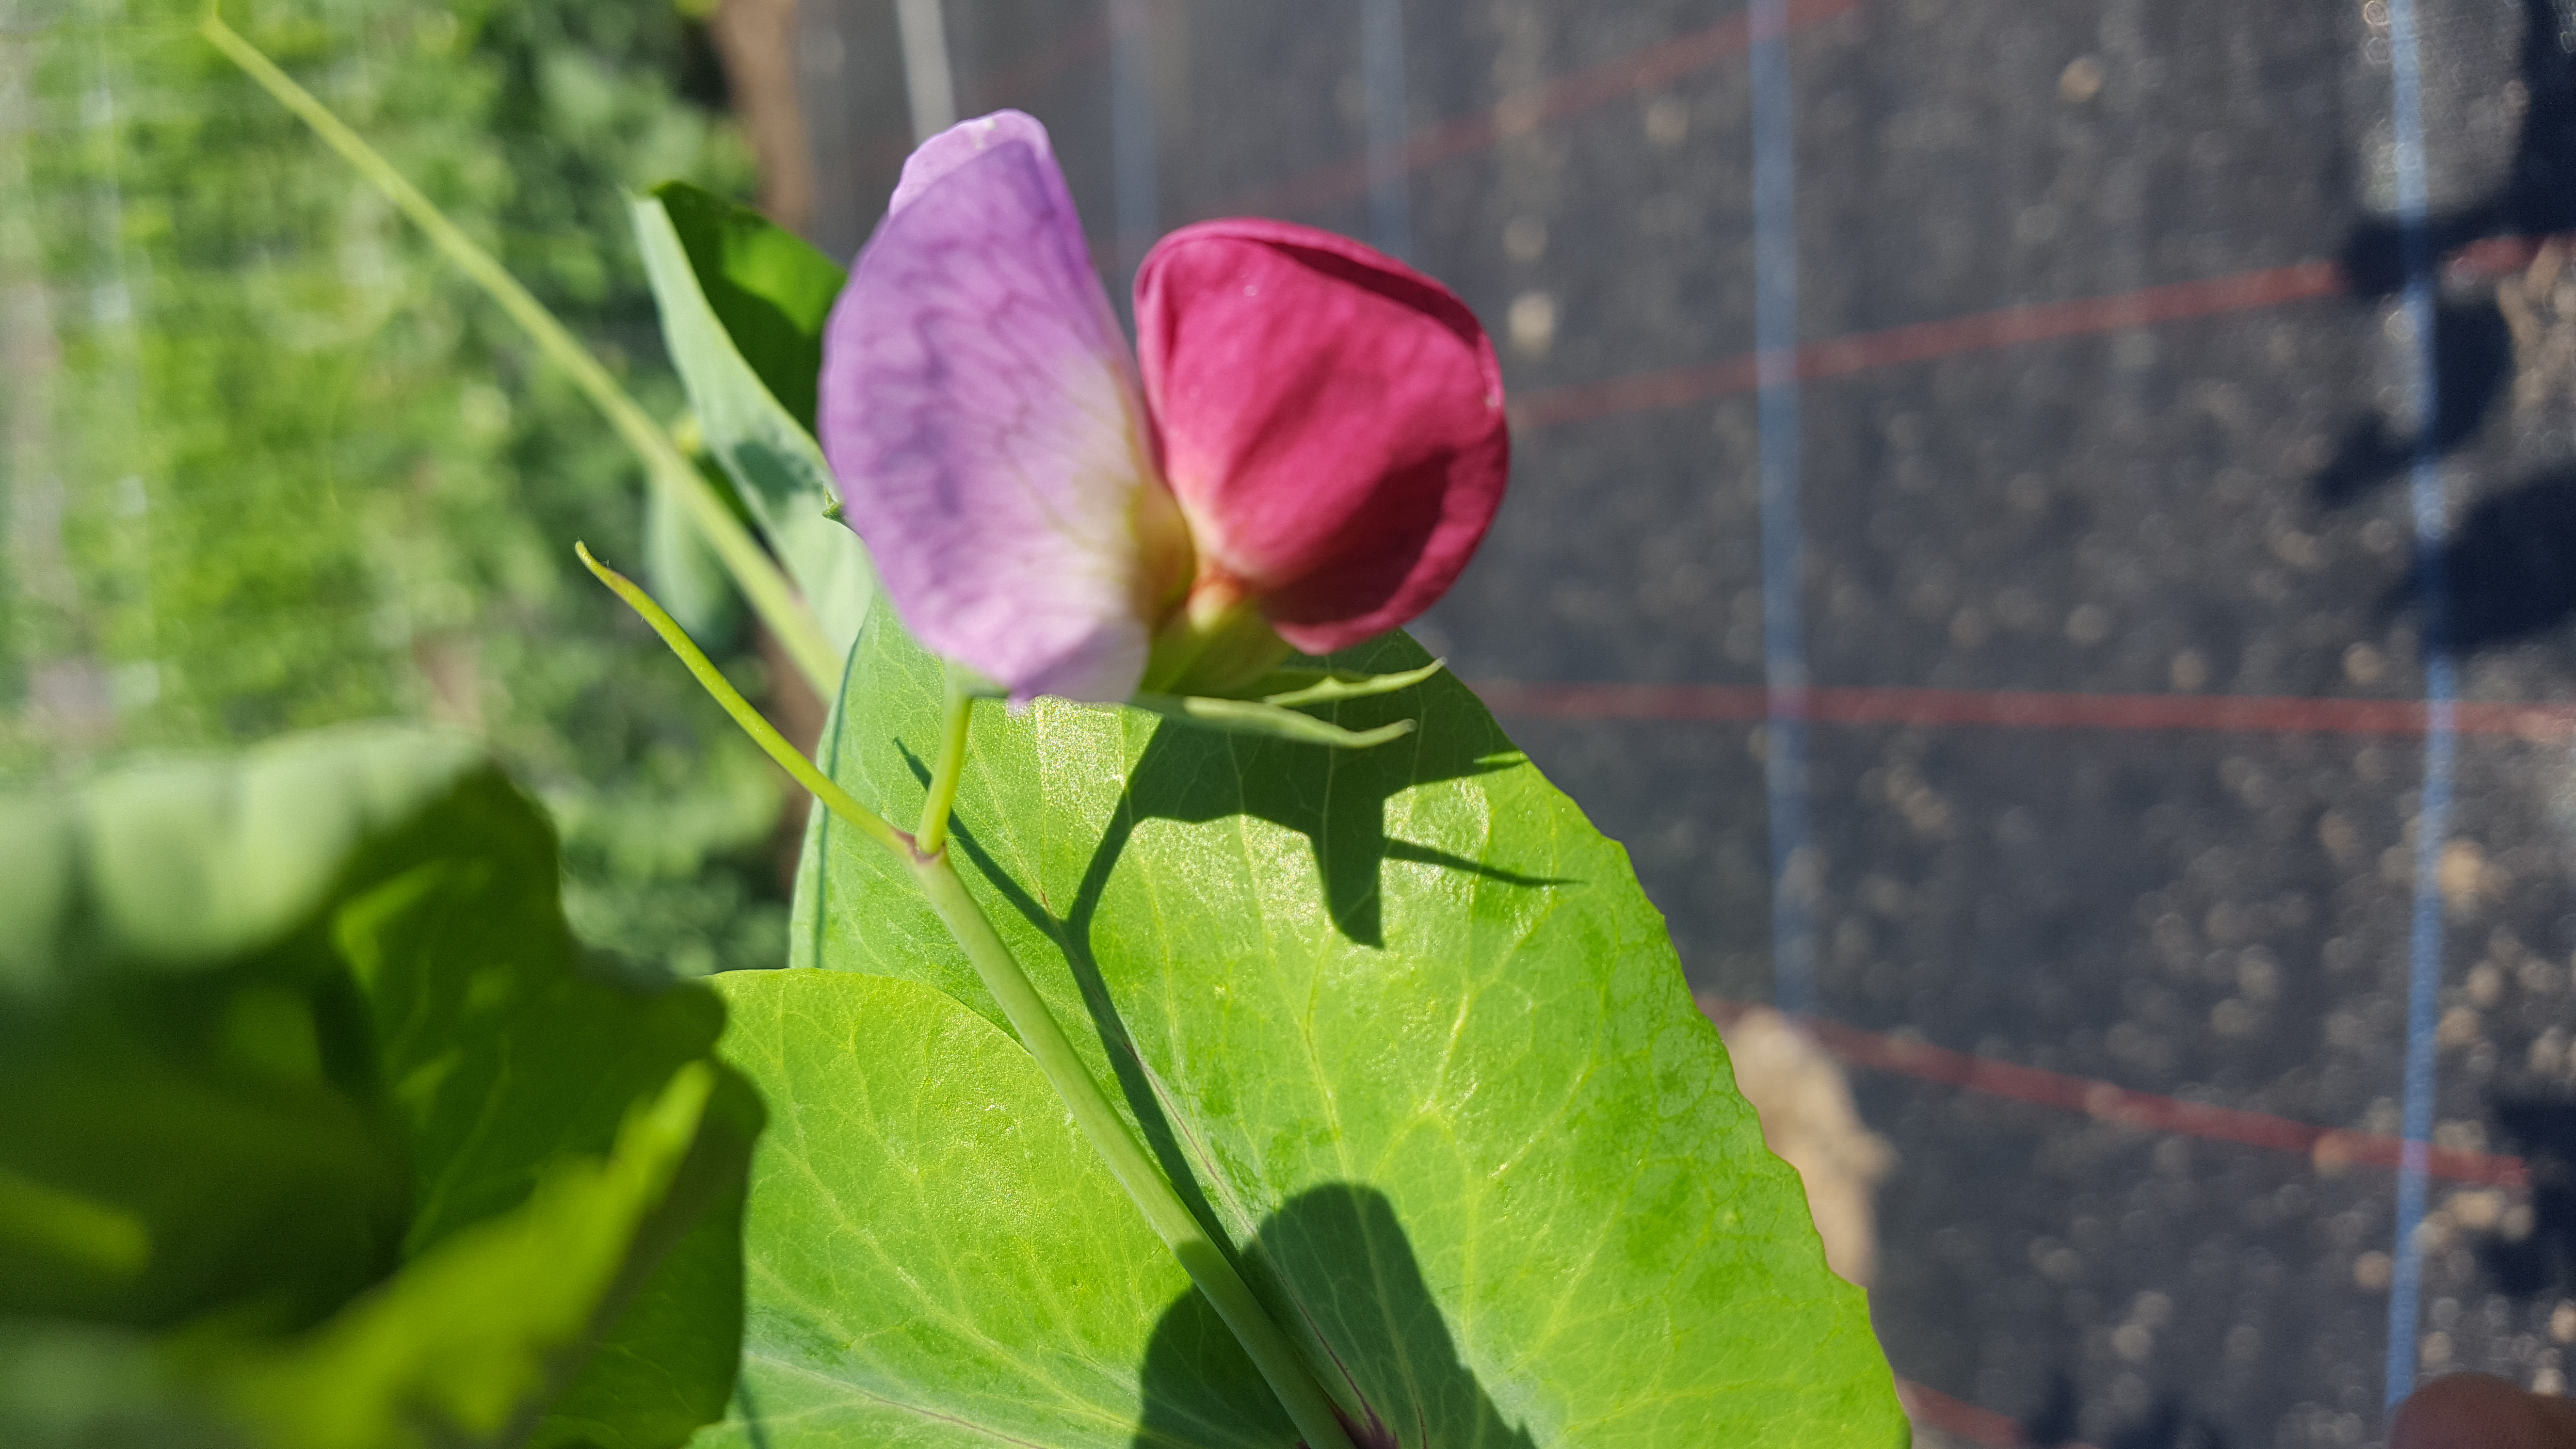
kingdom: Plantae
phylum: Tracheophyta
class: Magnoliopsida
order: Fabales
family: Fabaceae
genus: Lathyrus
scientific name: Lathyrus oleraceus
